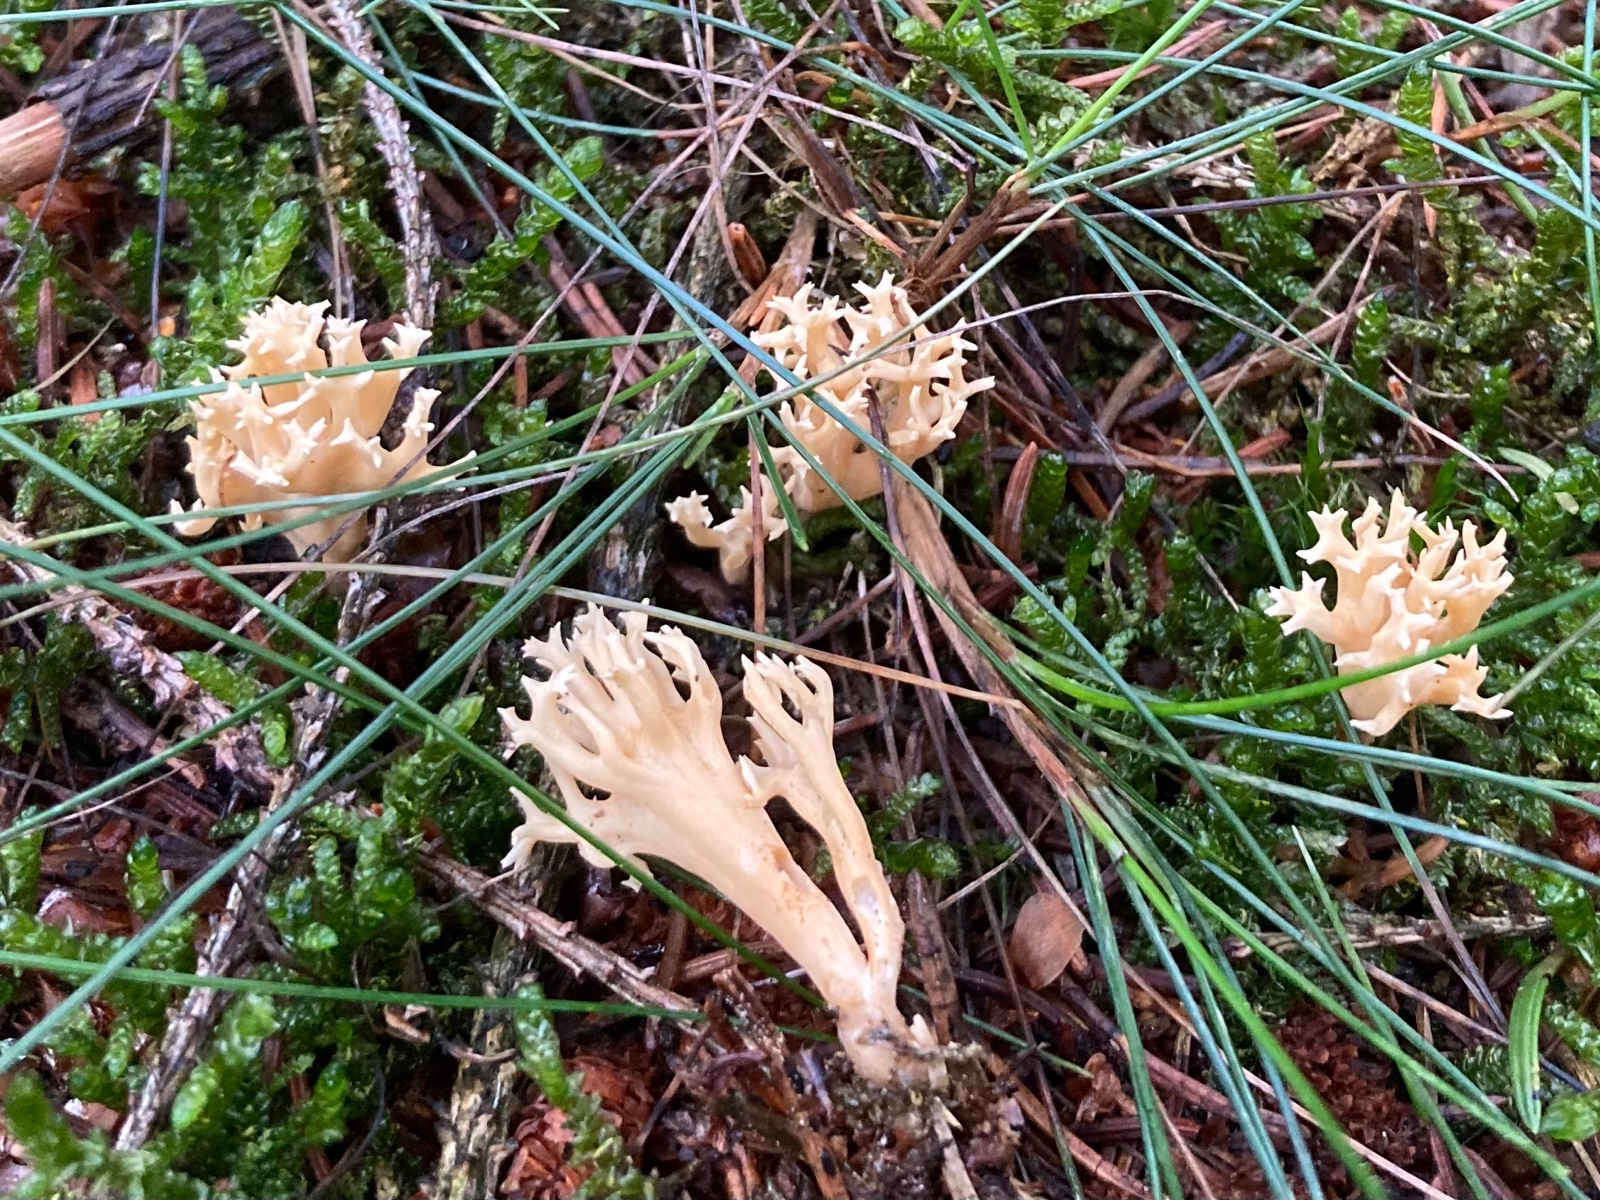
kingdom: Fungi
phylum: Basidiomycota
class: Agaricomycetes
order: Gomphales
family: Gomphaceae
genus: Phaeoclavulina
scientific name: Phaeoclavulina flaccida
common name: spinkel koralsvamp
